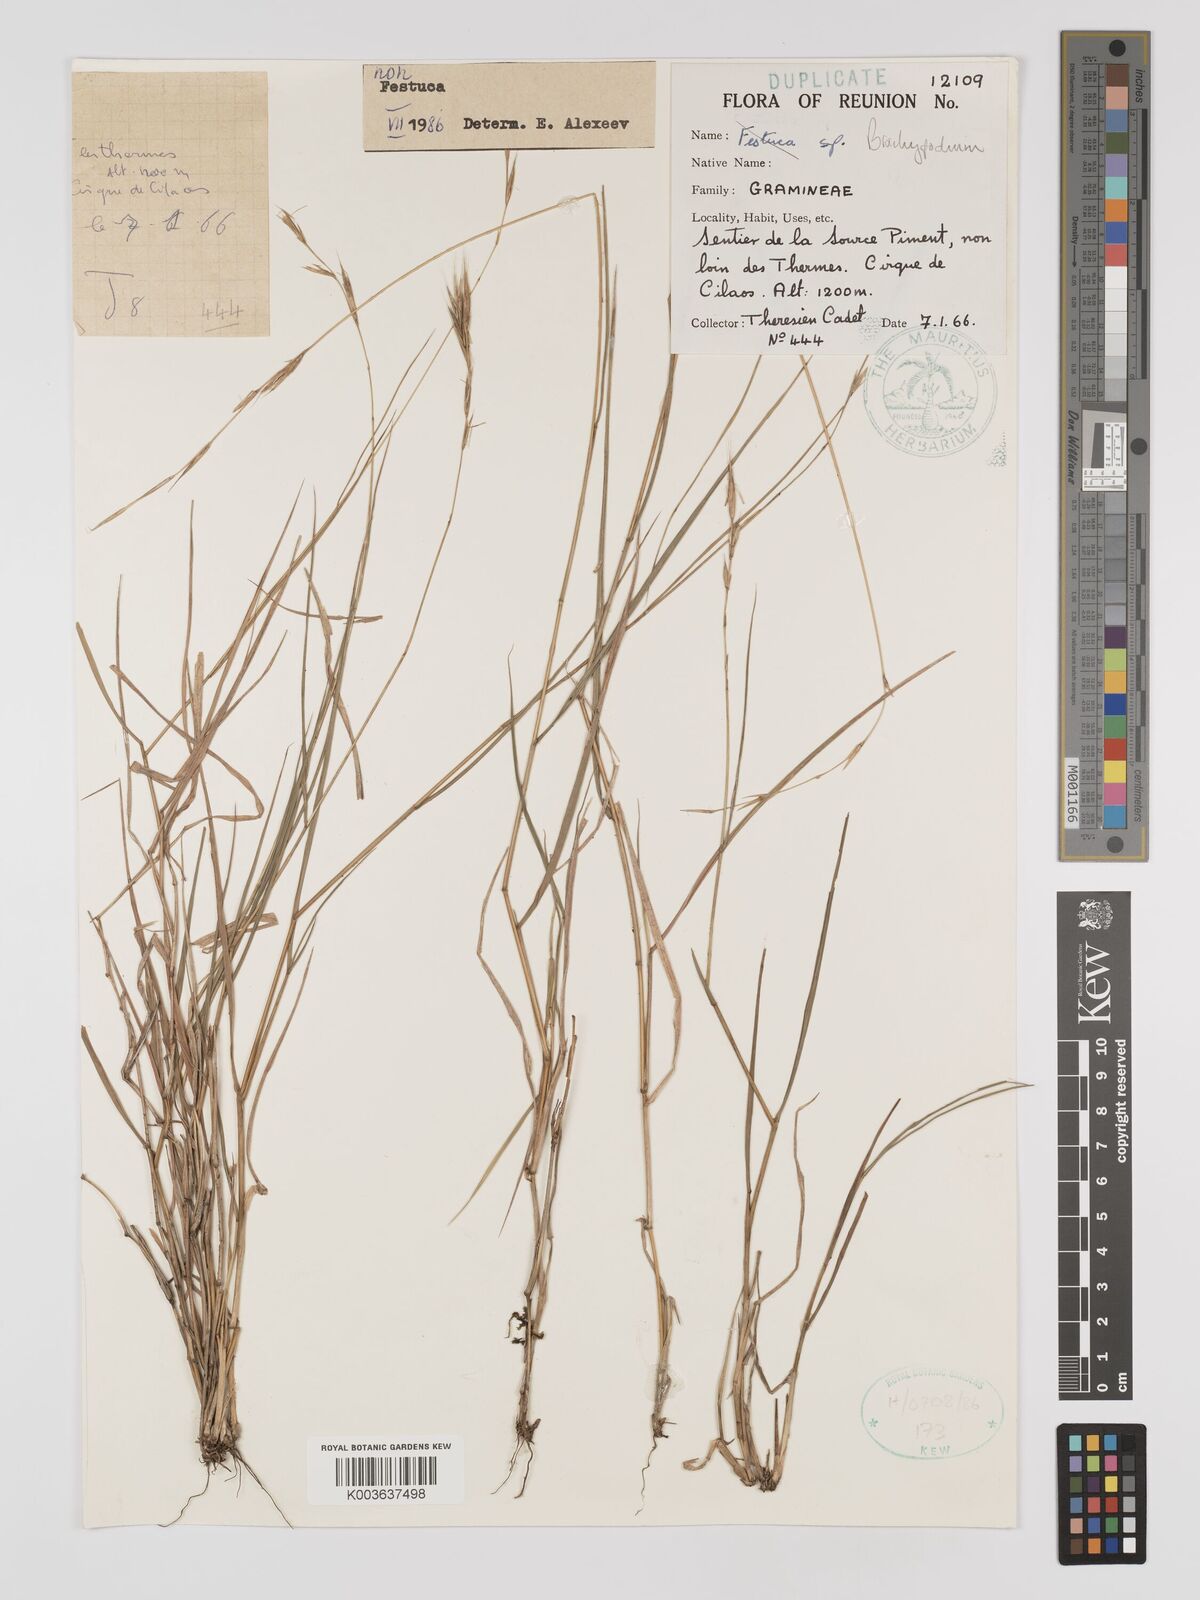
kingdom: Plantae
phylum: Tracheophyta
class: Liliopsida
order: Poales
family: Poaceae
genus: Brachypodium
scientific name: Brachypodium flexum
